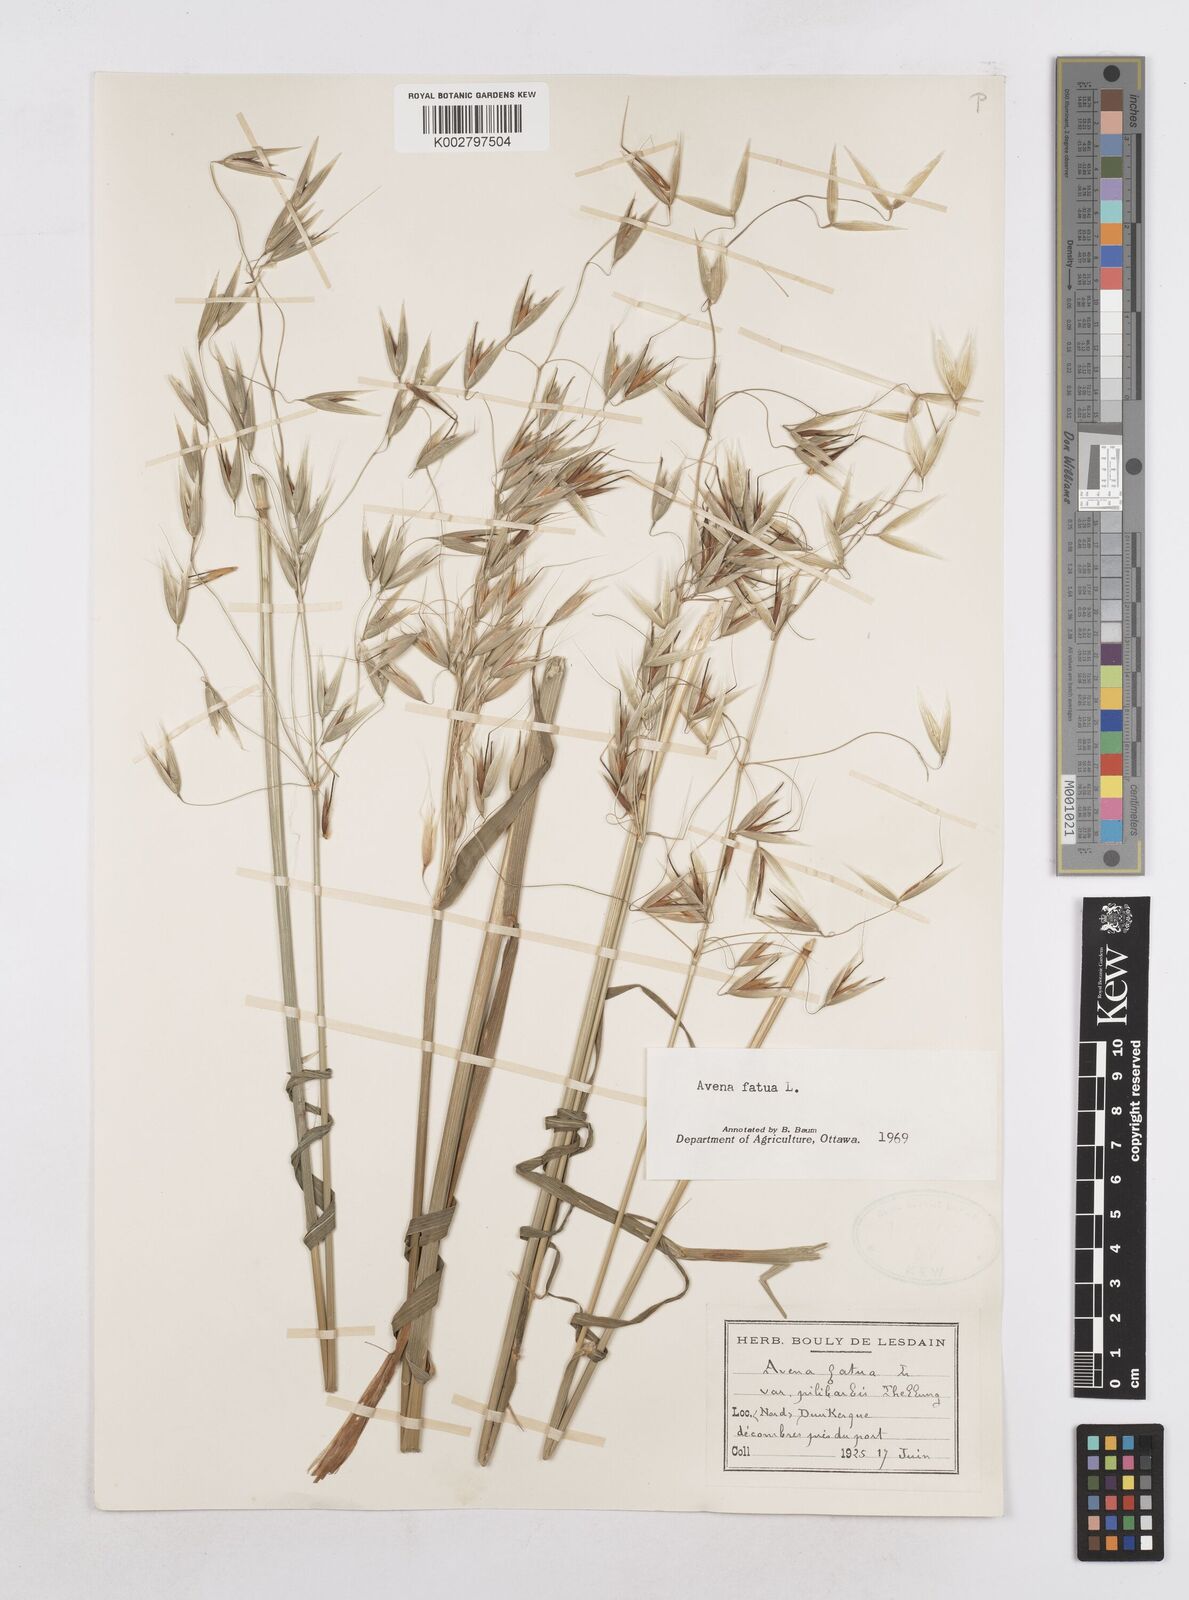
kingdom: Plantae
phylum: Tracheophyta
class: Liliopsida
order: Poales
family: Poaceae
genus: Avena
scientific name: Avena fatua
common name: Wild oat
